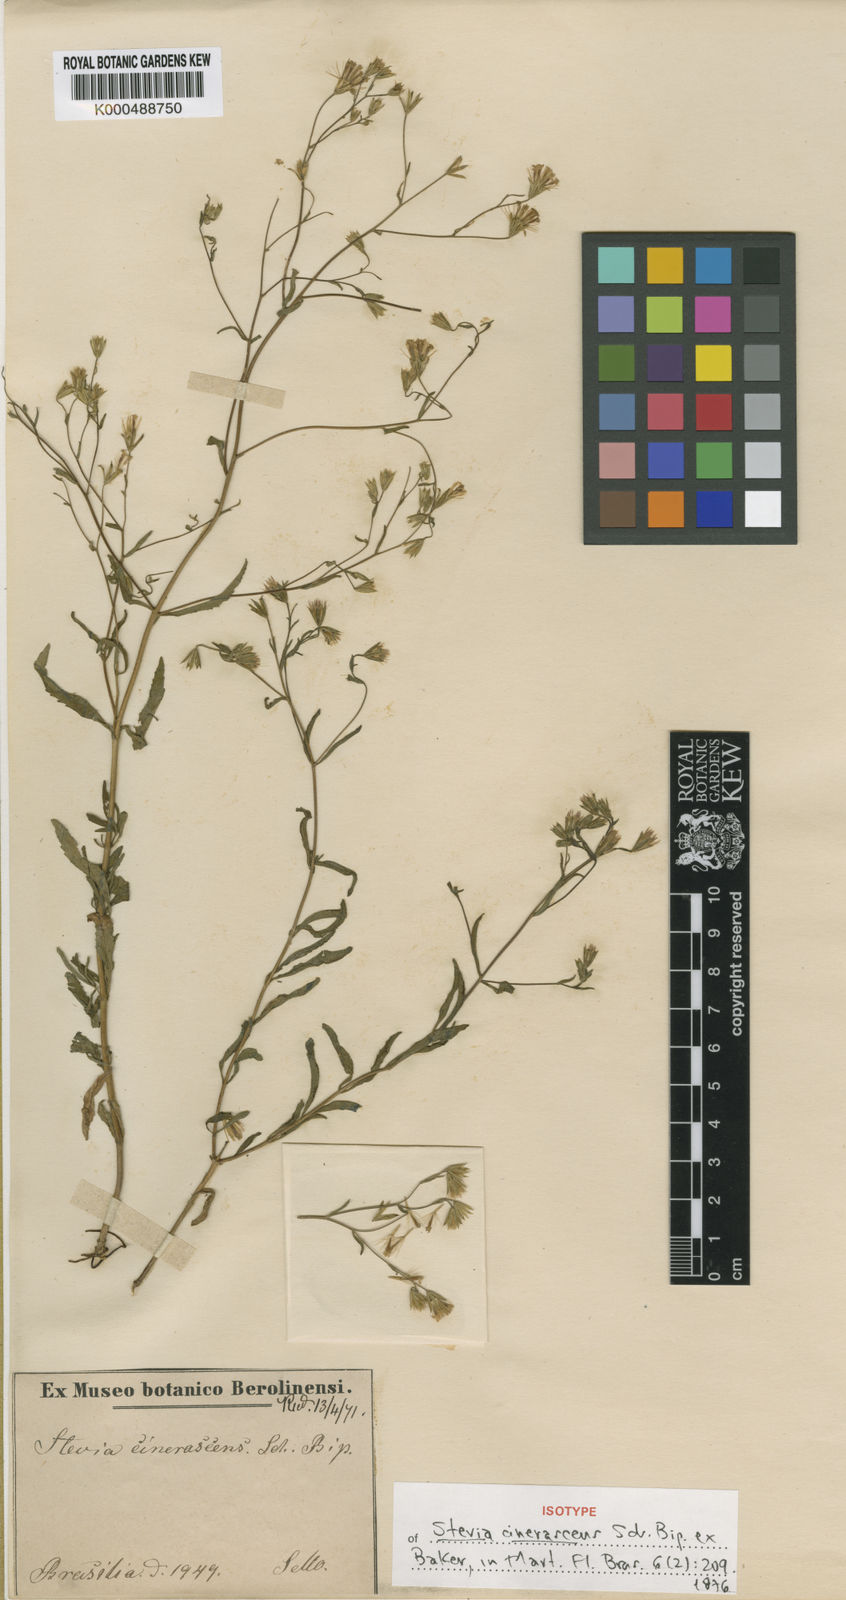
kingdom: Plantae
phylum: Tracheophyta
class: Magnoliopsida
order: Asterales
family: Asteraceae
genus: Stevia
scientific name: Stevia cinerascens
